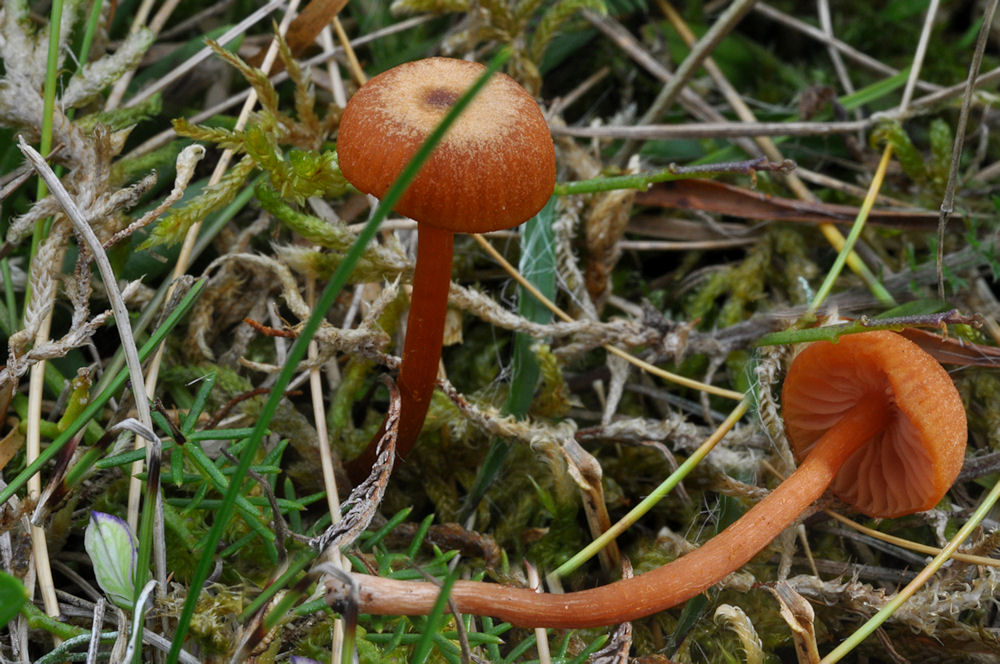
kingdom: Fungi
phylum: Basidiomycota
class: Agaricomycetes
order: Agaricales
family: Hydnangiaceae
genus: Laccaria
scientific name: Laccaria montana
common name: nordlig ametysthat
